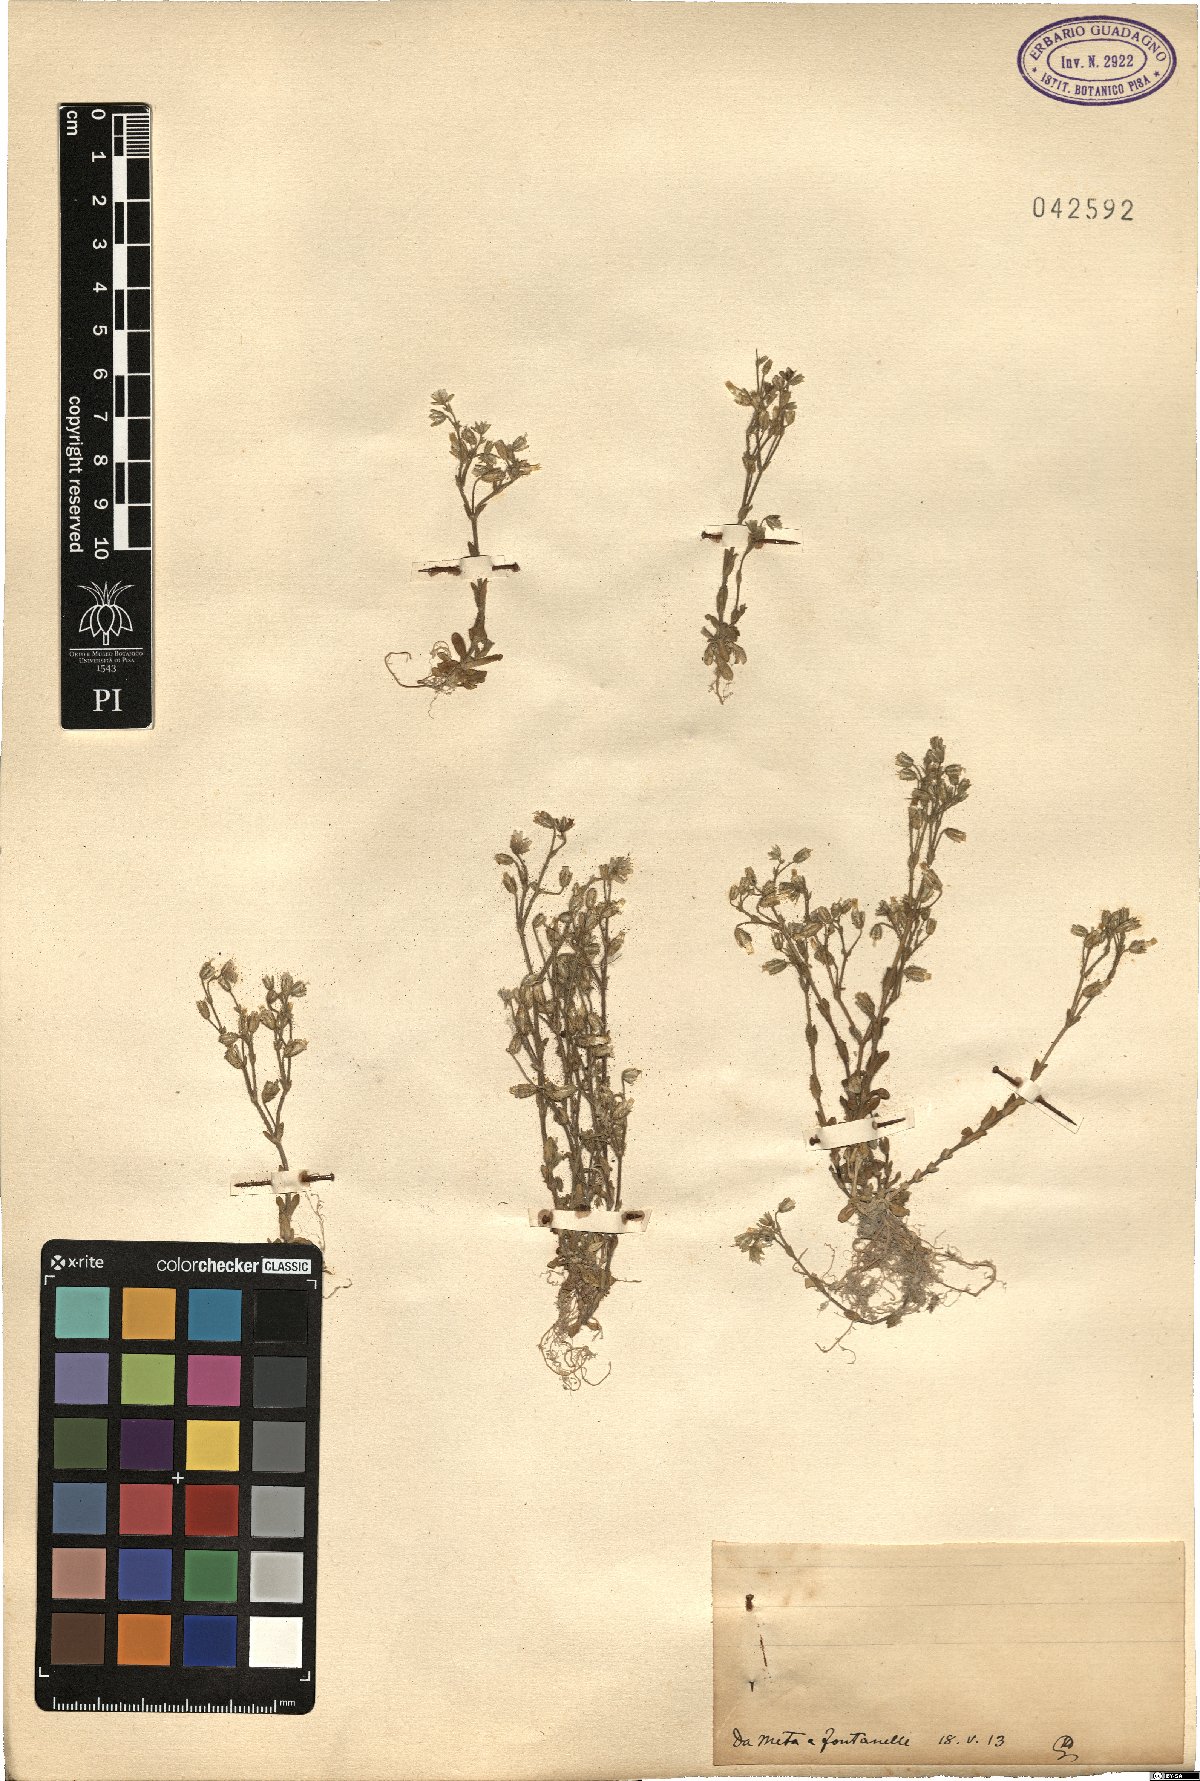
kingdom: Plantae
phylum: Tracheophyta
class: Magnoliopsida
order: Caryophyllales
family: Caryophyllaceae
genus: Cerastium
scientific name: Cerastium
